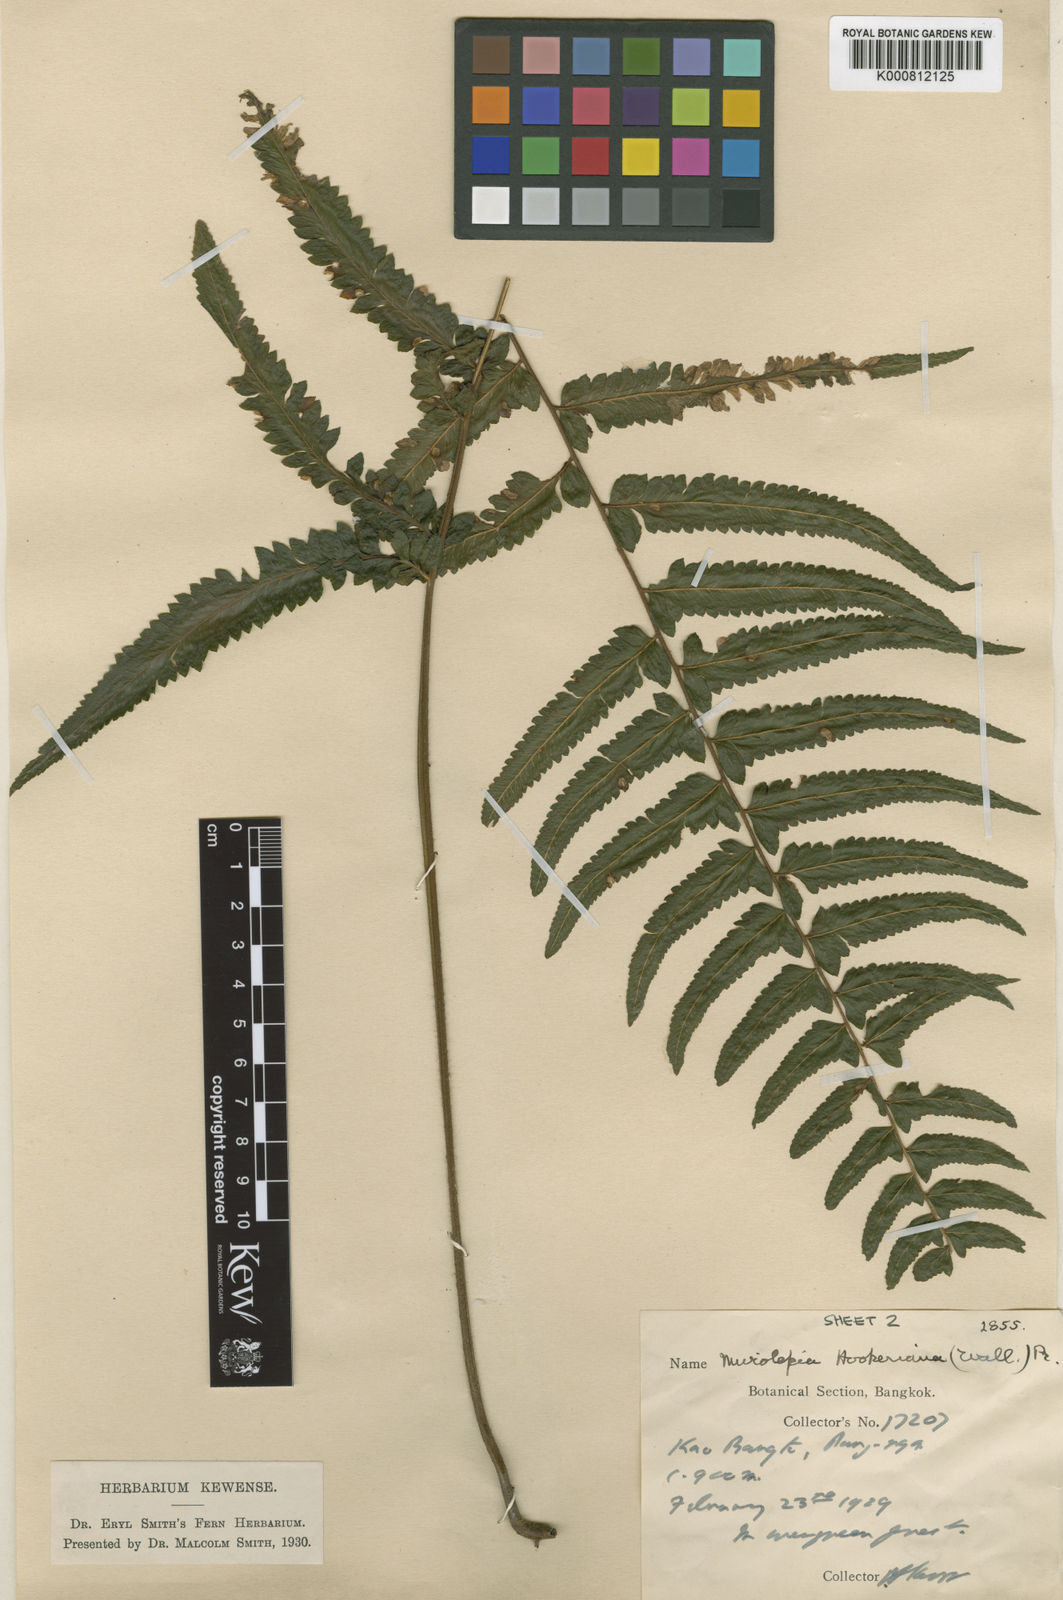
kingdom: Plantae
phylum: Tracheophyta
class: Polypodiopsida
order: Polypodiales
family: Dennstaedtiaceae
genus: Microlepia
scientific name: Microlepia bipinnata
